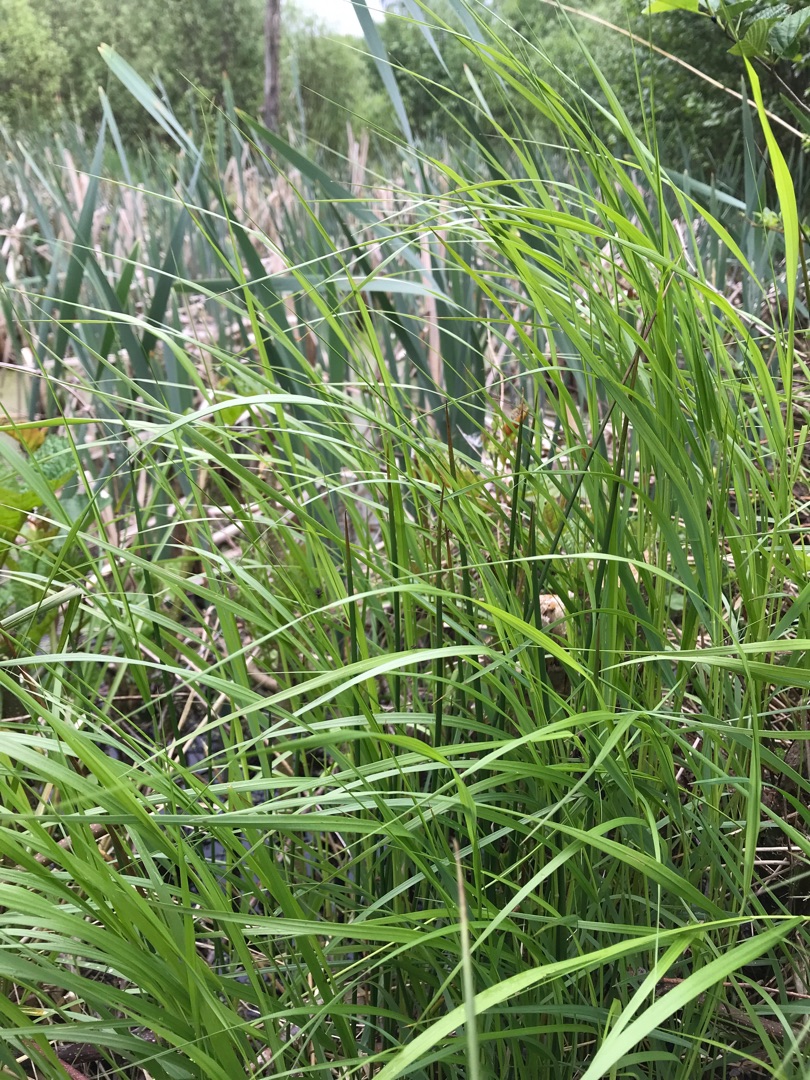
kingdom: Plantae
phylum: Tracheophyta
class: Liliopsida
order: Poales
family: Poaceae
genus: Calamagrostis
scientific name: Calamagrostis canescens
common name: Eng-rørhvene
